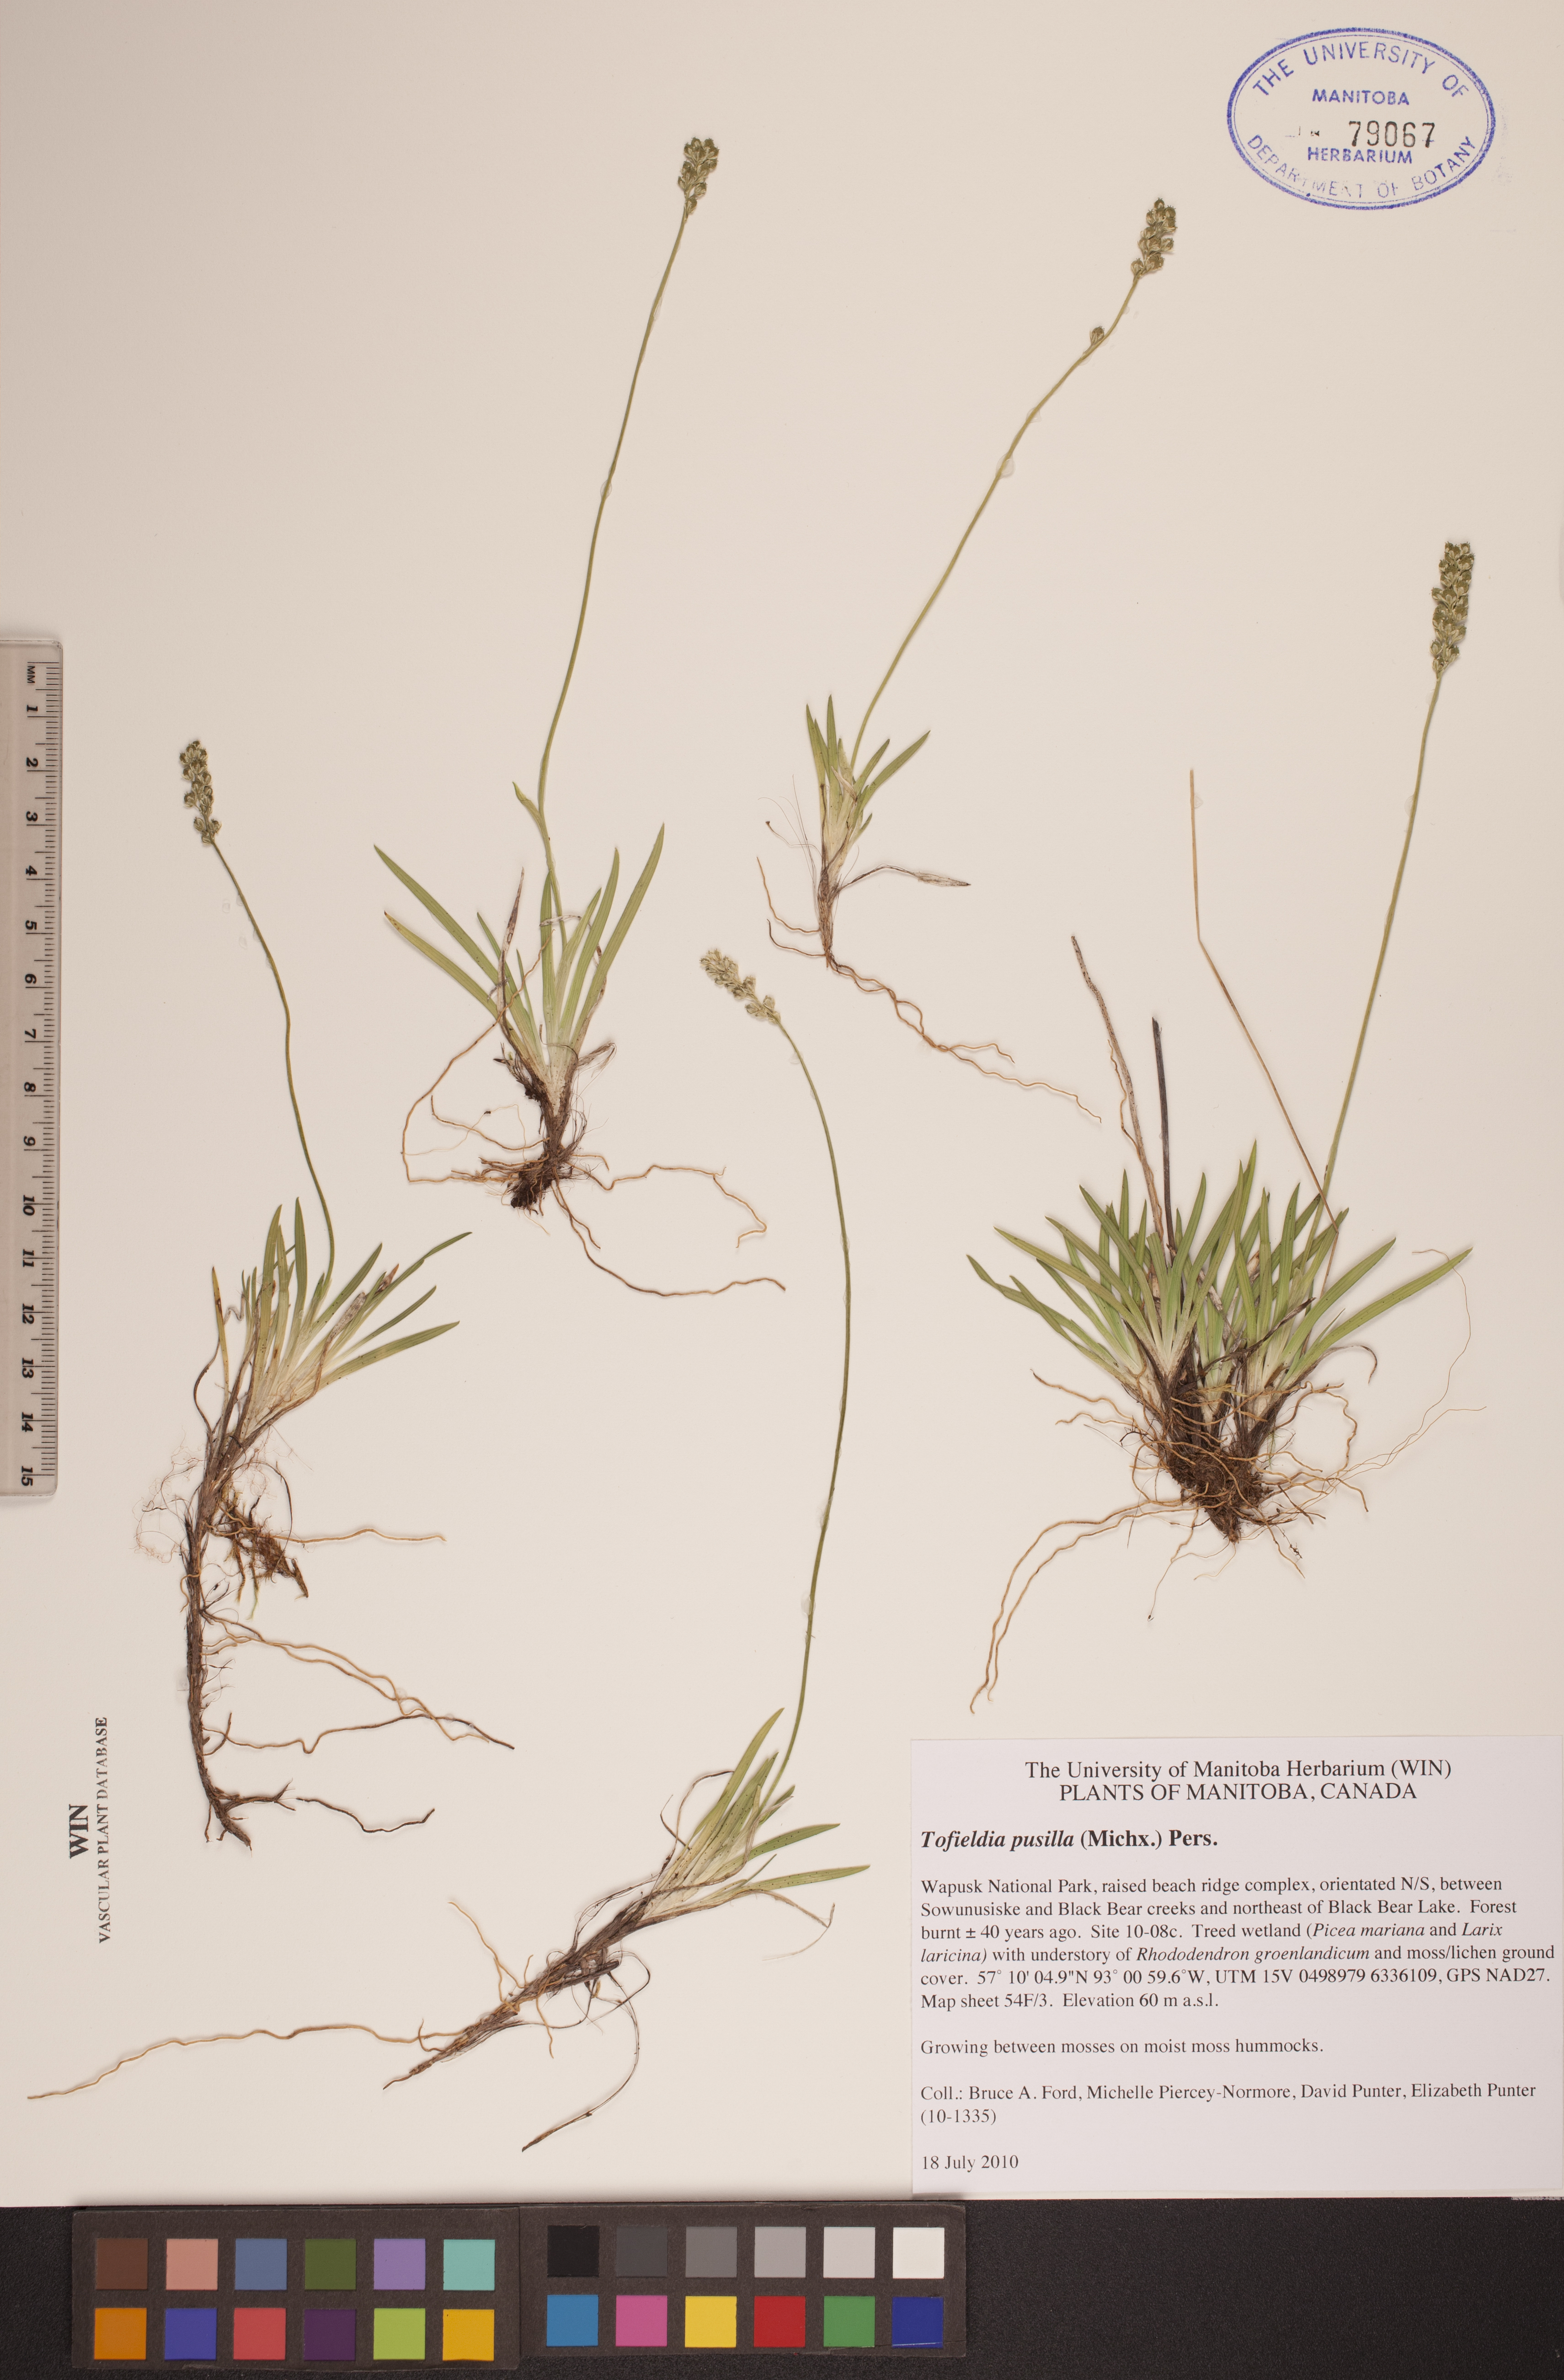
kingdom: Plantae
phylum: Tracheophyta
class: Liliopsida
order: Alismatales
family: Tofieldiaceae
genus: Tofieldia
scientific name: Tofieldia pusilla
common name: Scottish false asphodel
